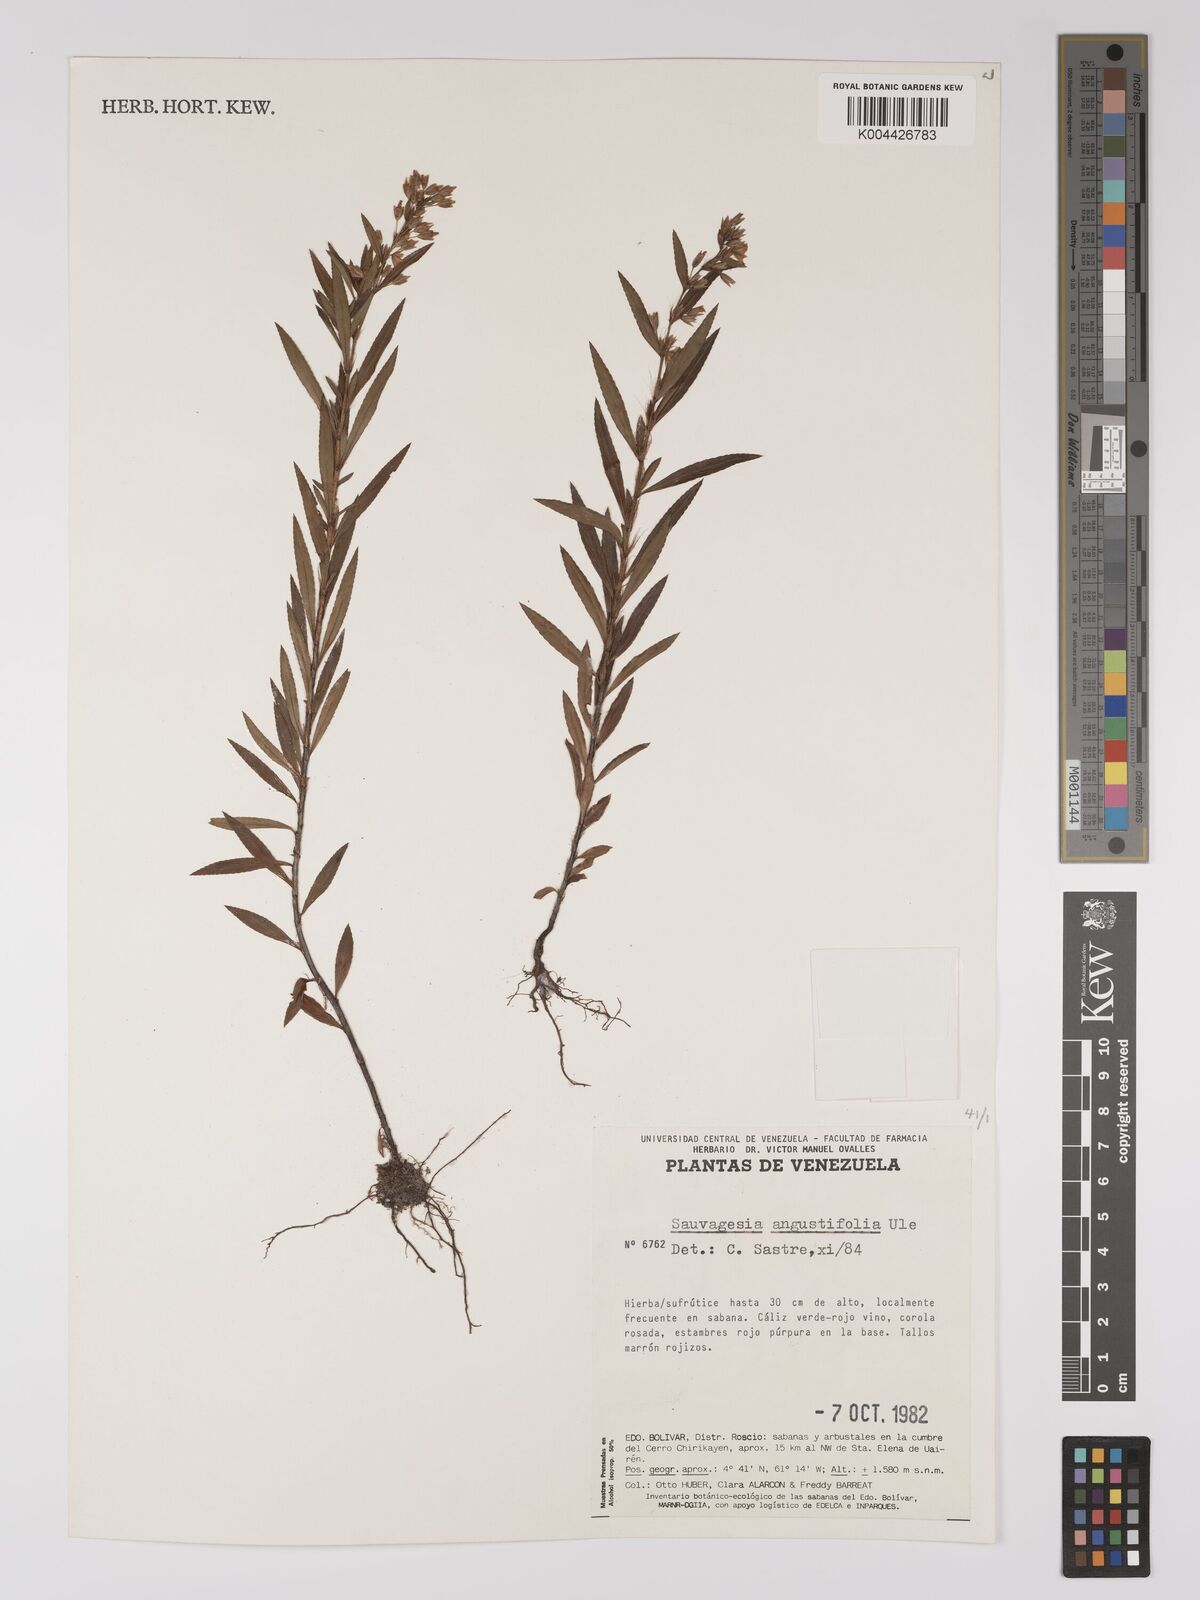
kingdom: Plantae
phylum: Tracheophyta
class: Magnoliopsida
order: Malpighiales
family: Ochnaceae
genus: Sauvagesia
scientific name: Sauvagesia angustifolia
